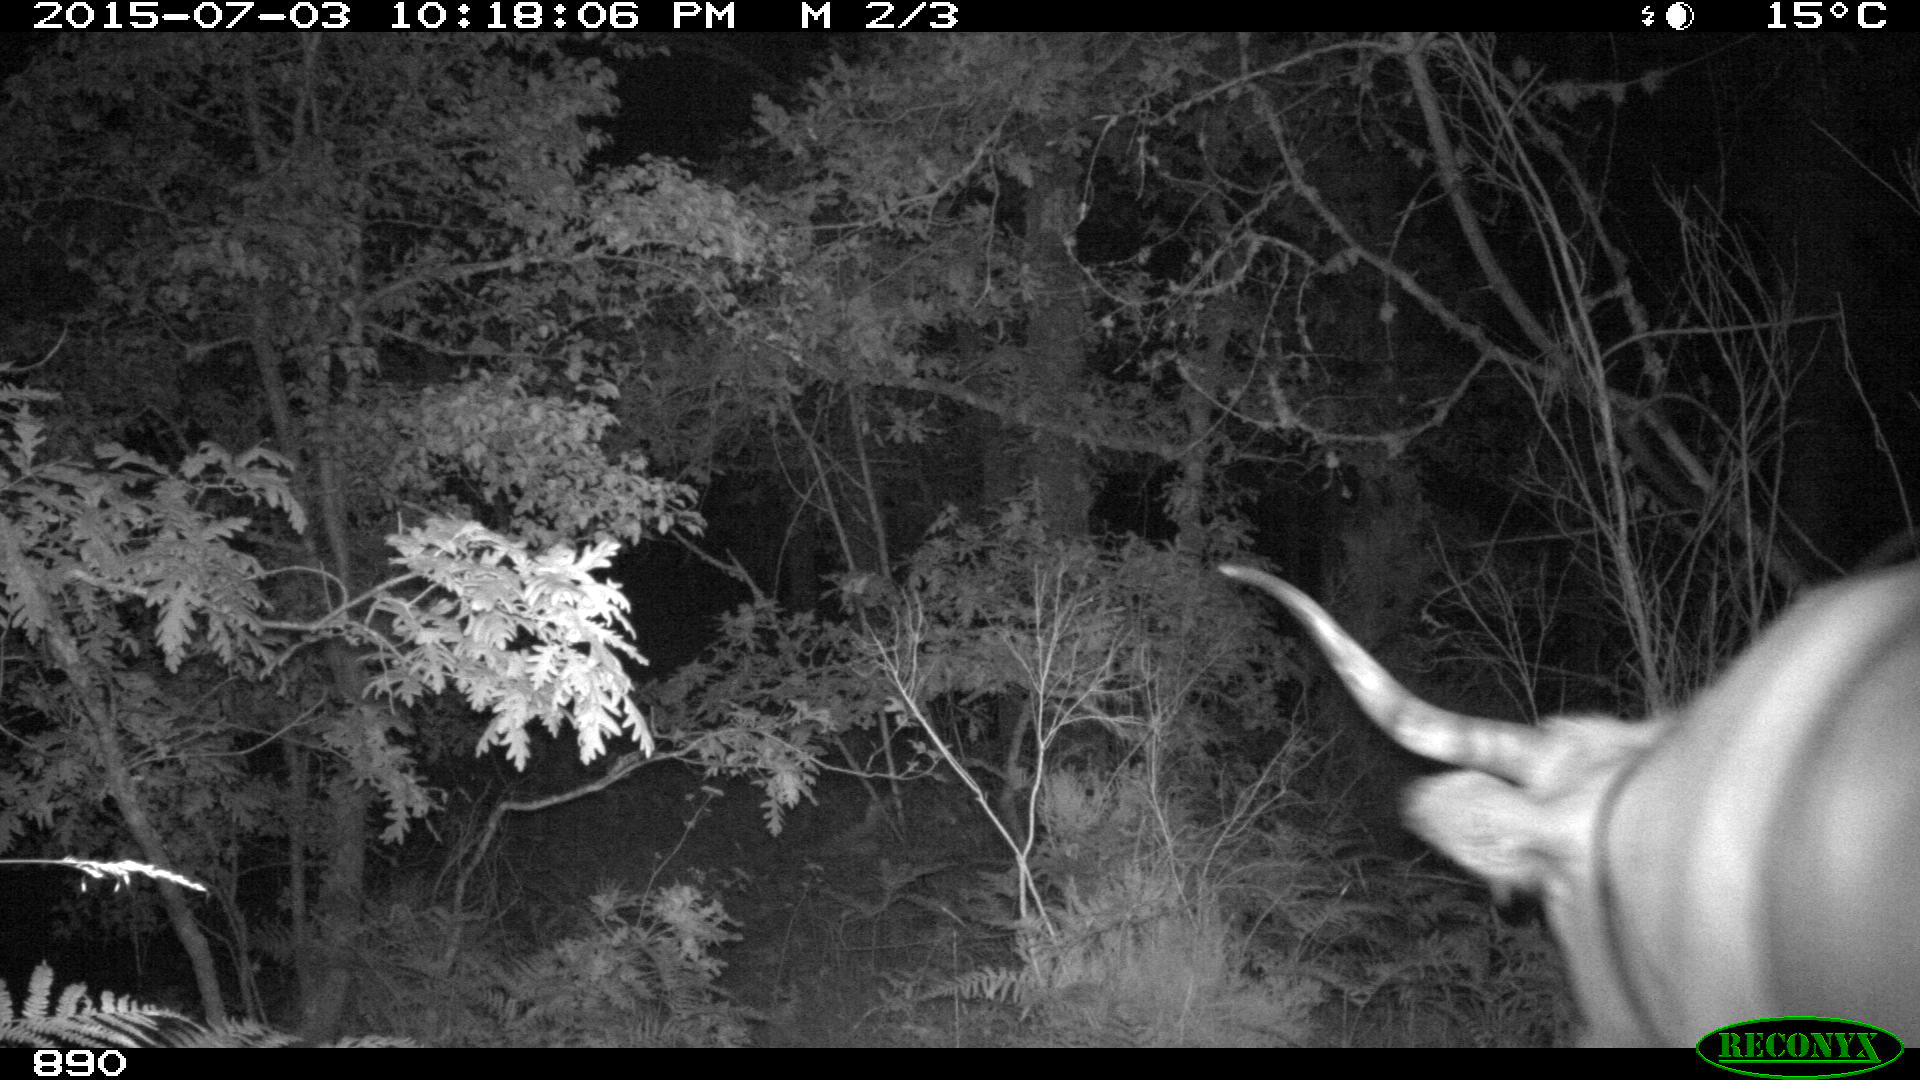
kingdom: Animalia
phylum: Chordata
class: Mammalia
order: Artiodactyla
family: Bovidae
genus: Bos
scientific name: Bos taurus
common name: Domesticated cattle
